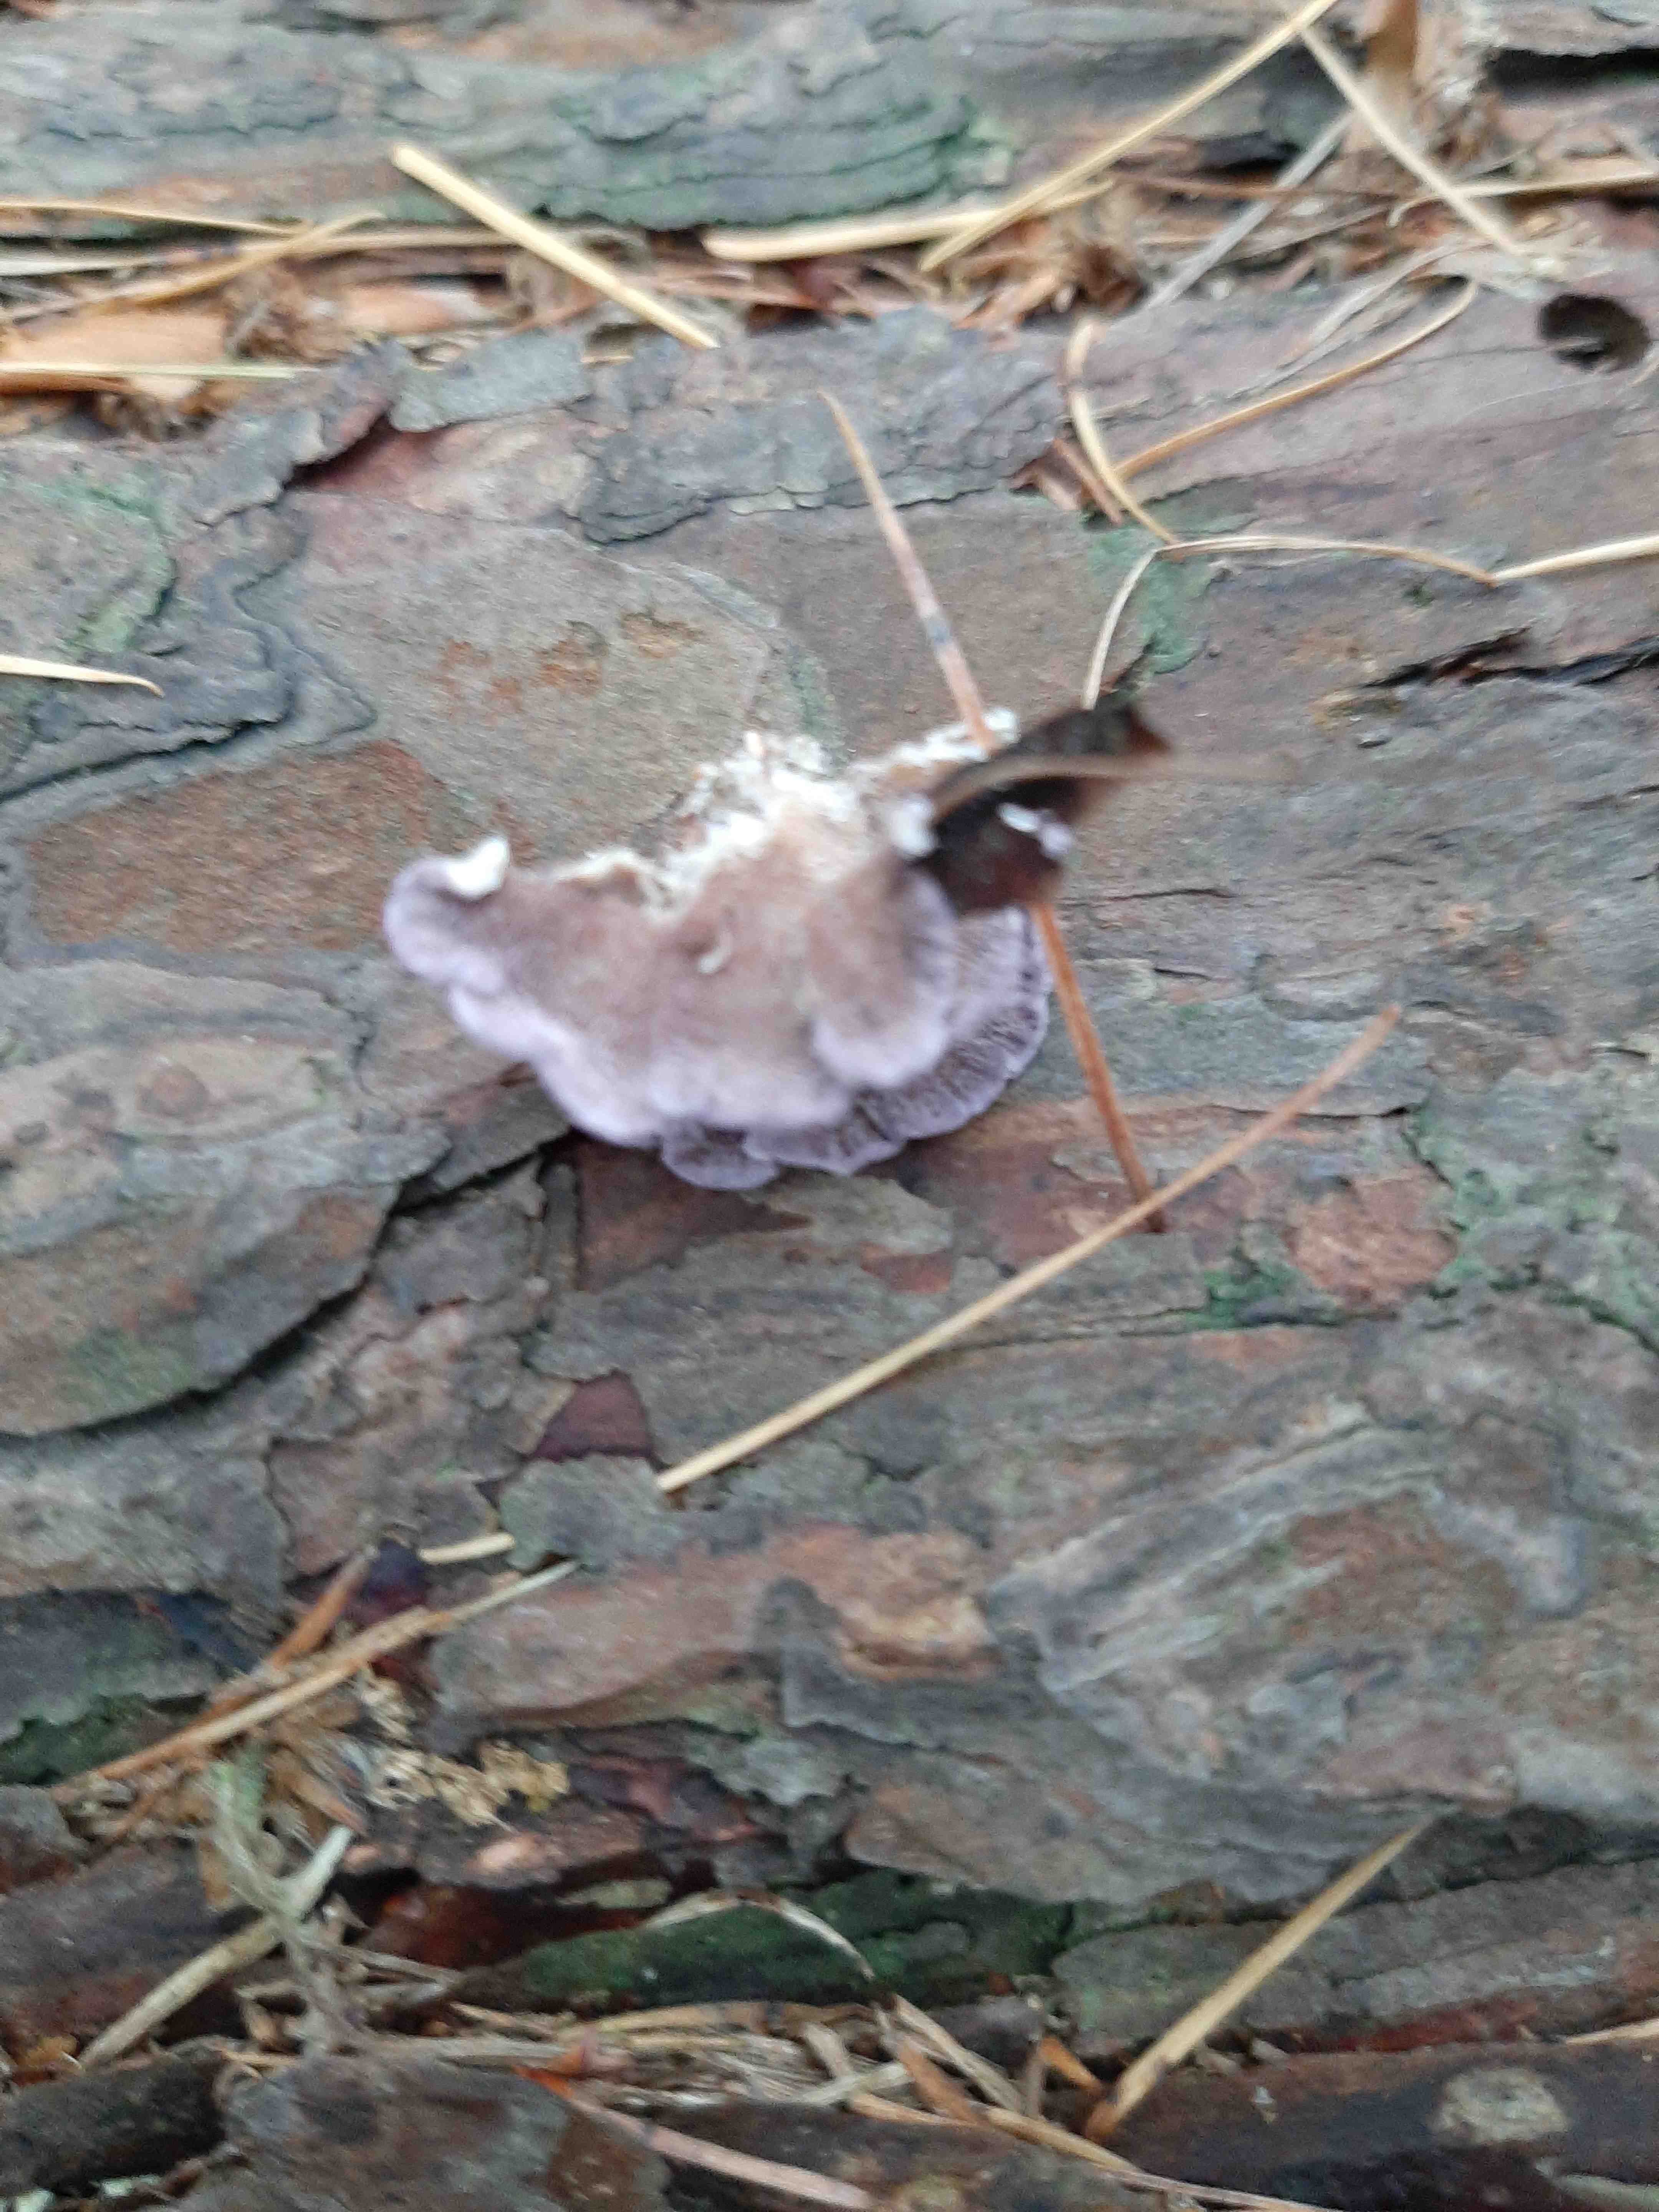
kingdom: Fungi
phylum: Basidiomycota
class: Agaricomycetes
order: Hymenochaetales
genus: Trichaptum
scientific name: Trichaptum abietinum
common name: almindelig violporesvamp
